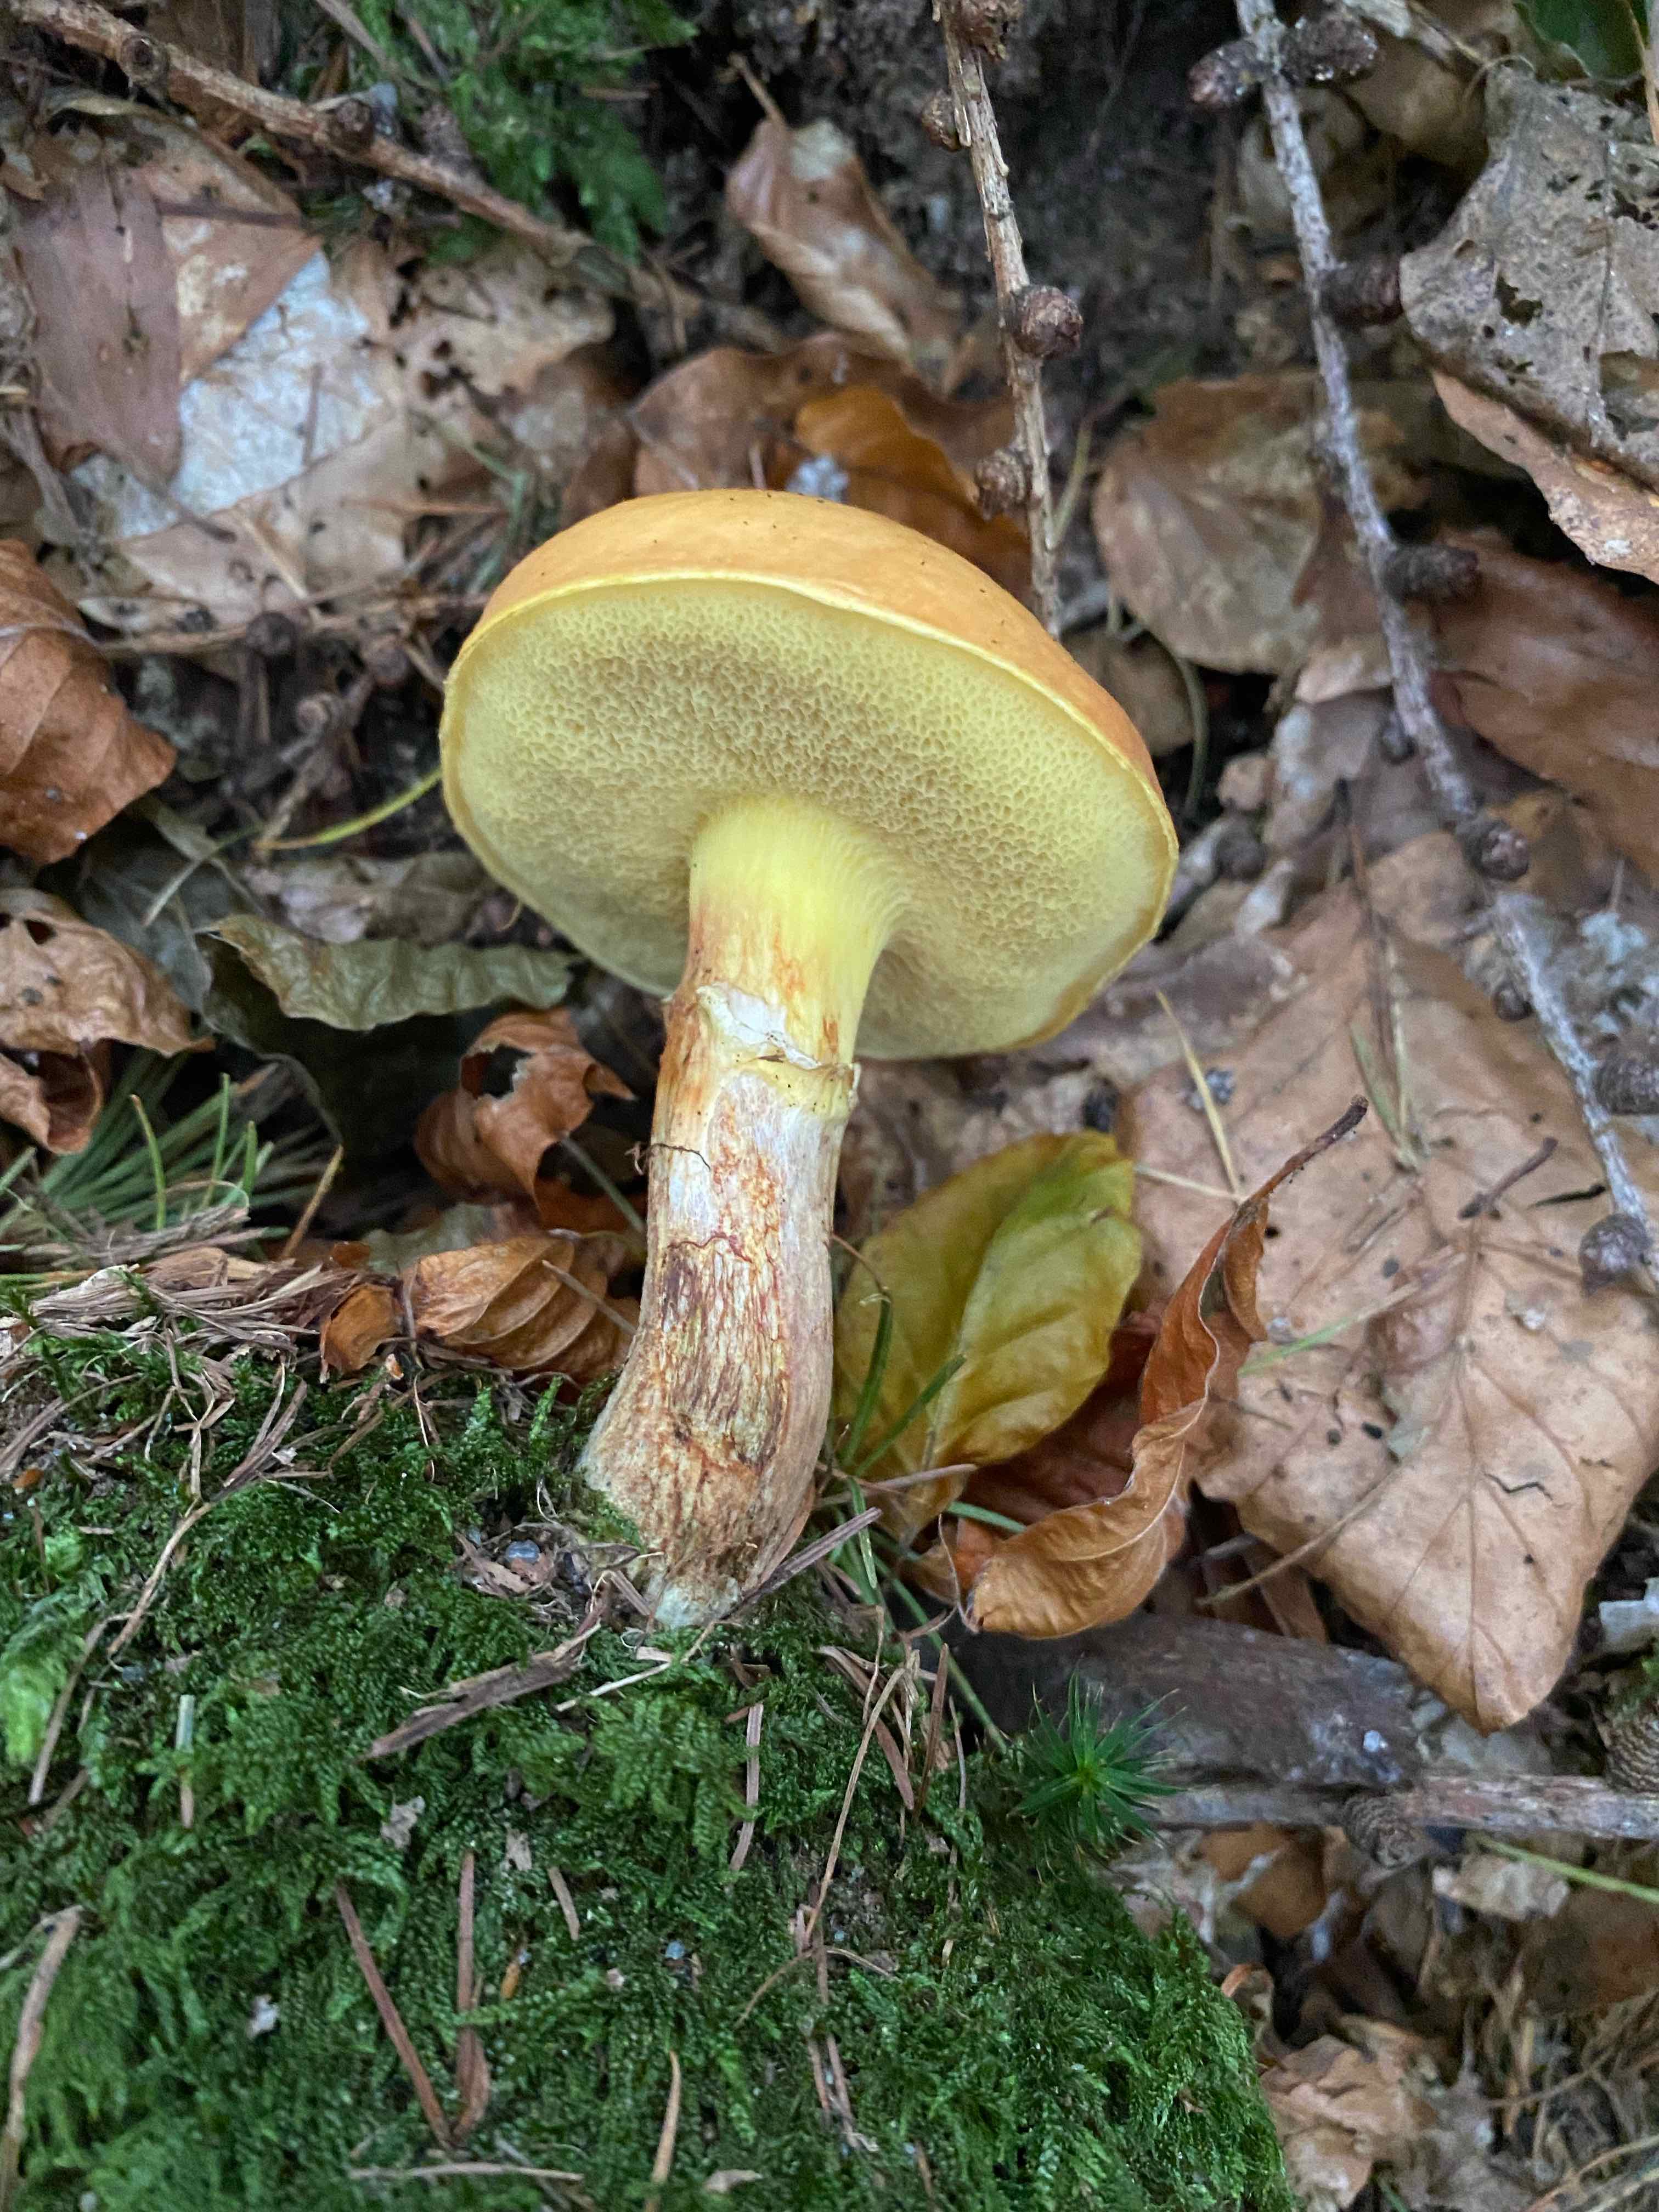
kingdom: Fungi
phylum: Basidiomycota
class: Agaricomycetes
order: Boletales
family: Suillaceae
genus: Suillus
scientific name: Suillus grevillei
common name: lærke-slimrørhat
